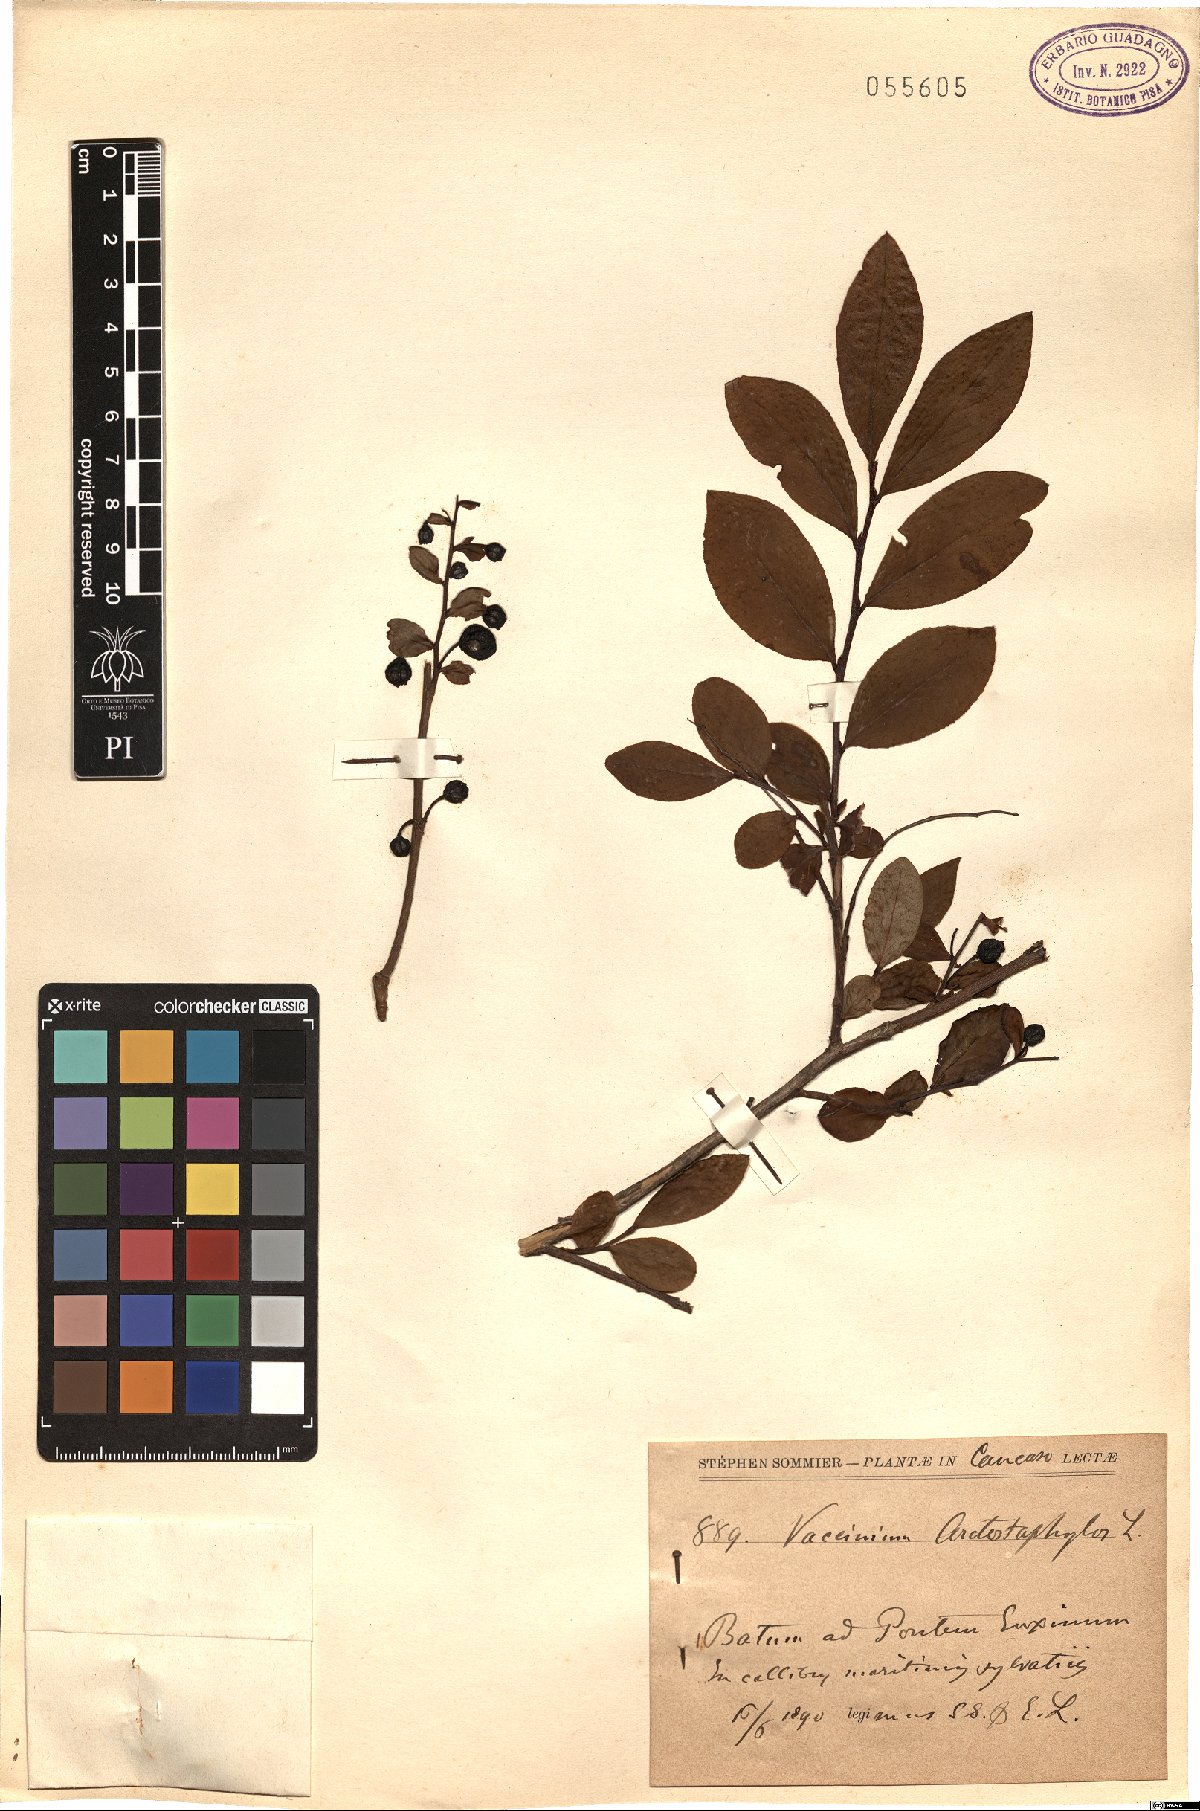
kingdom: Plantae
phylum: Tracheophyta
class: Magnoliopsida
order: Ericales
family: Ericaceae
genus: Vaccinium
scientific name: Vaccinium arctostaphylos
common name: Caucasian whortleberry
